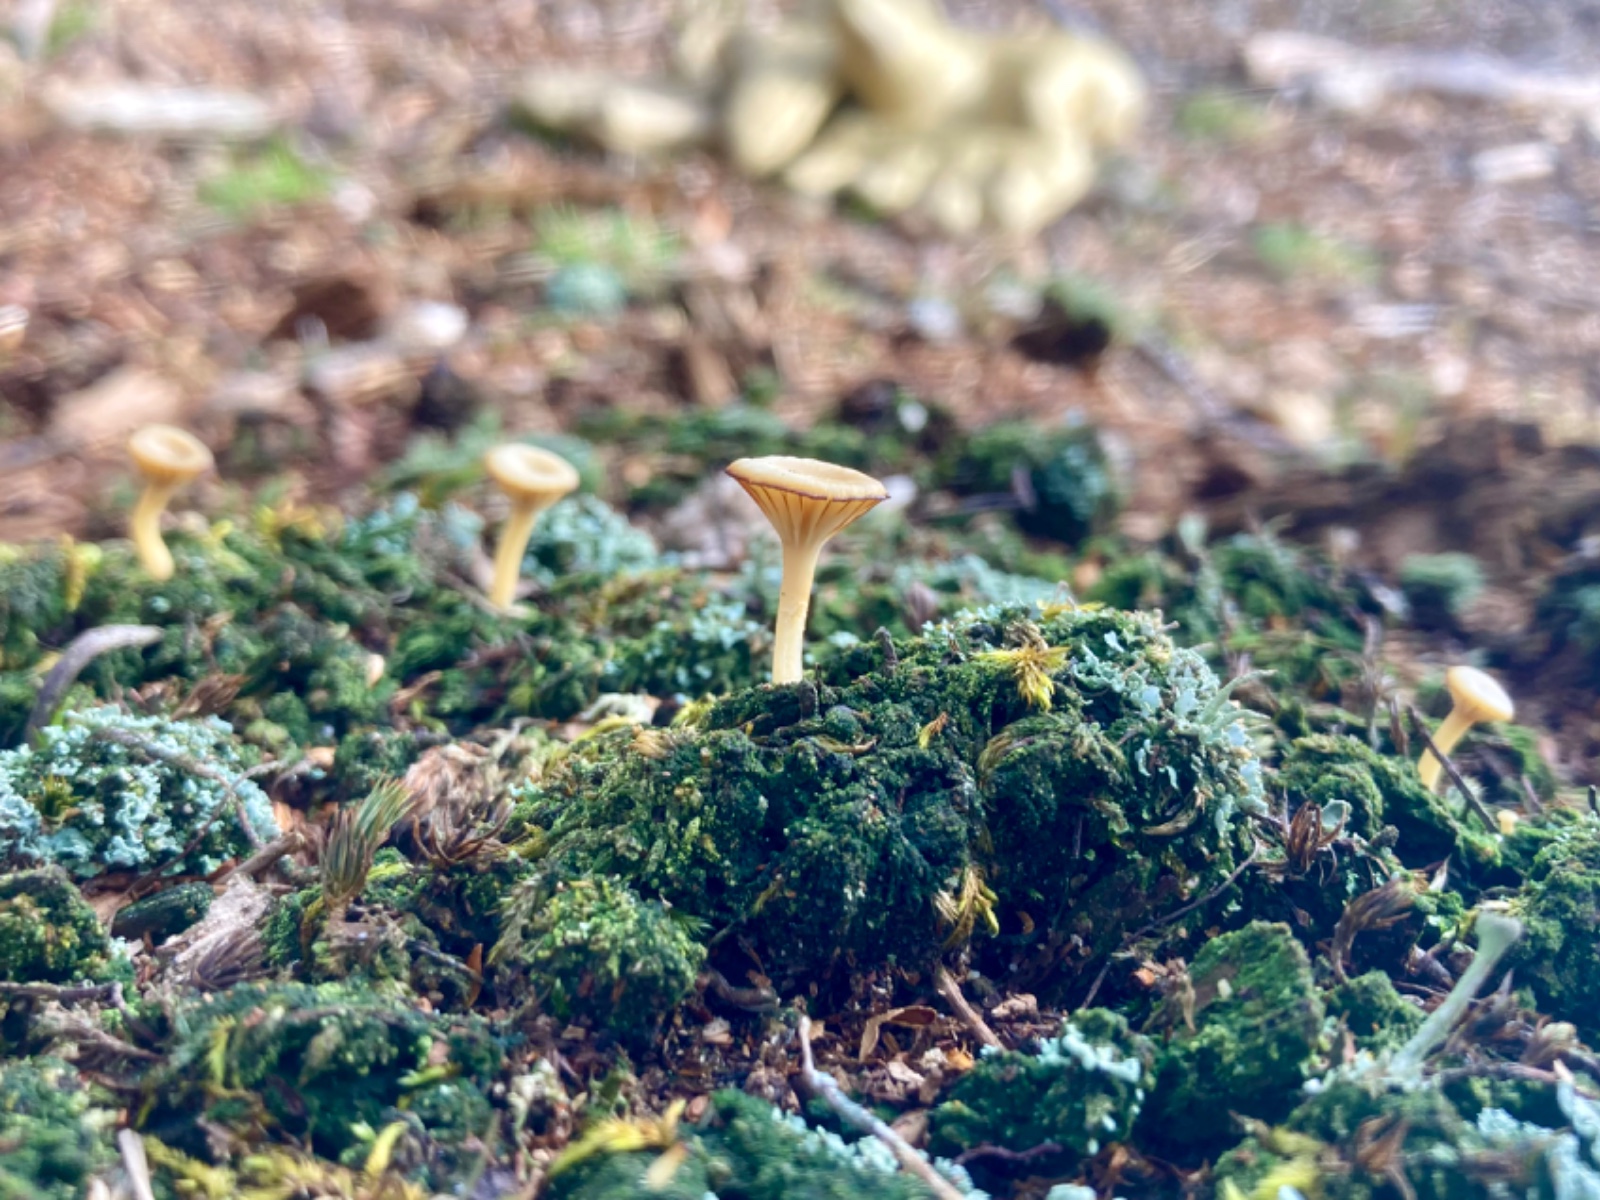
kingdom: Fungi
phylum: Basidiomycota
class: Agaricomycetes
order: Agaricales
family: Hygrophoraceae
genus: Lichenomphalia
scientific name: Lichenomphalia umbellifera
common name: tørve-lavhat
